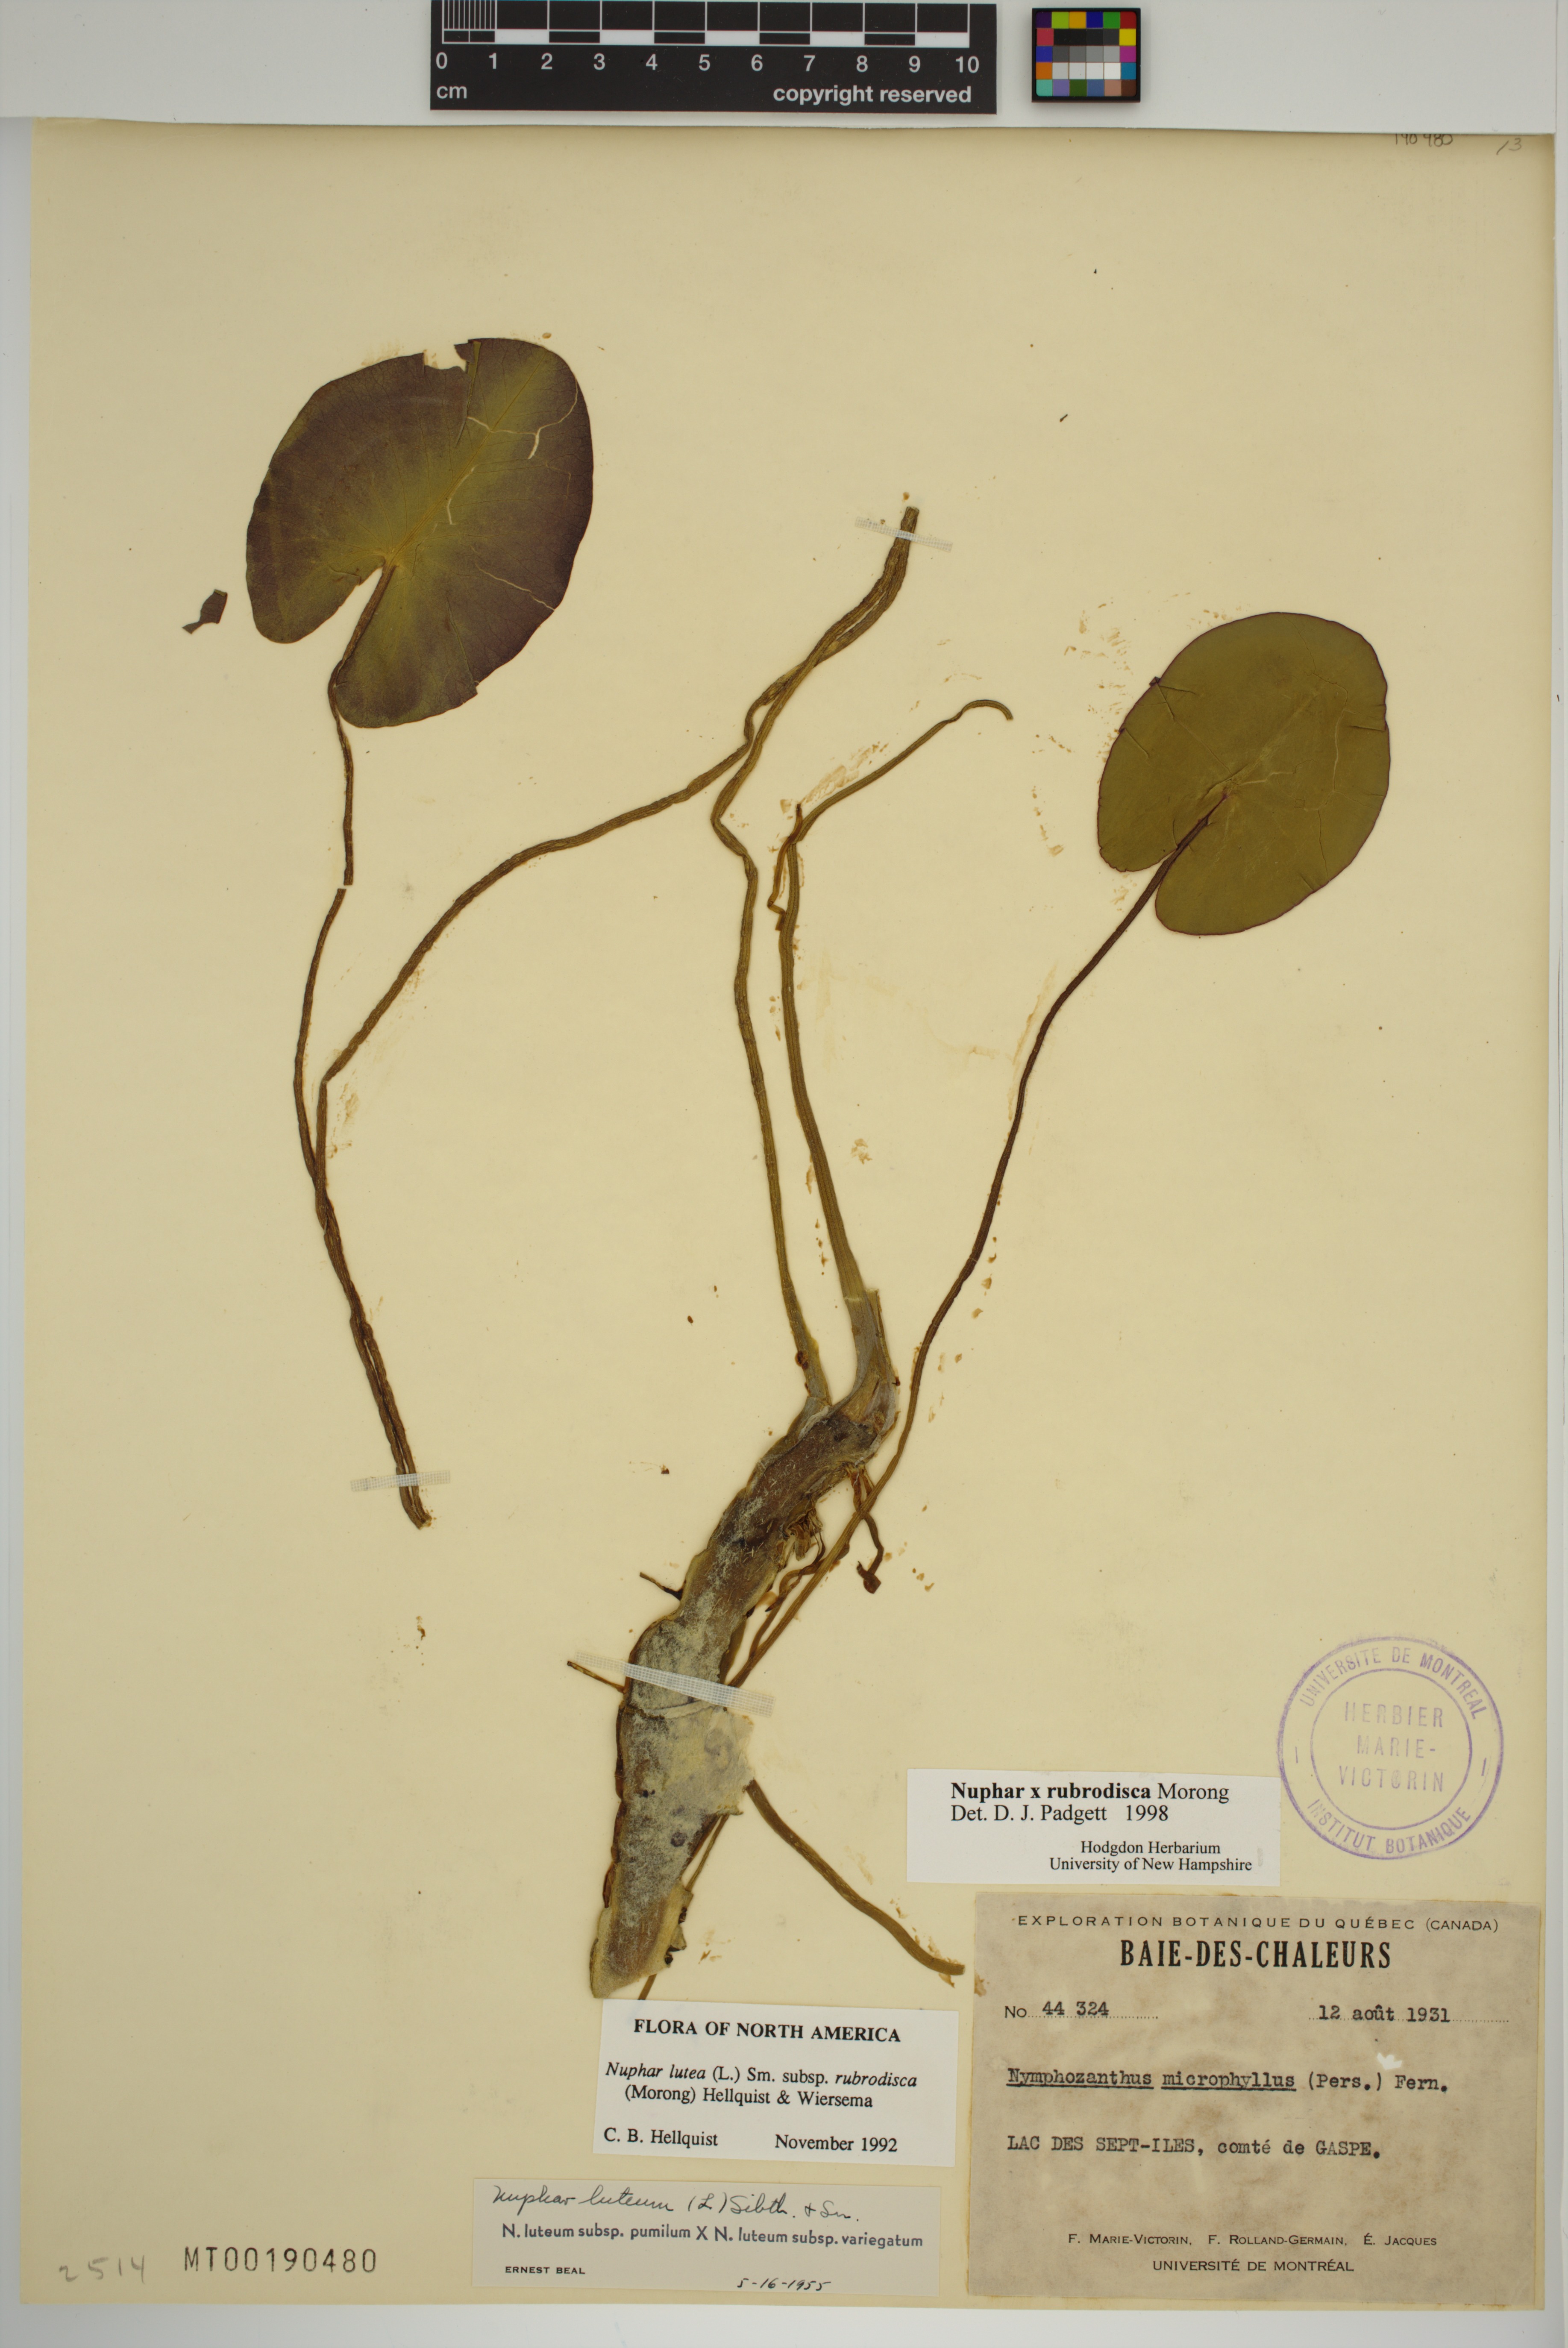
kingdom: Plantae
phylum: Tracheophyta
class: Magnoliopsida
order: Nymphaeales
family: Nymphaeaceae
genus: Nuphar
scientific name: Nuphar rubrodisca
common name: Yellow pond-lily
